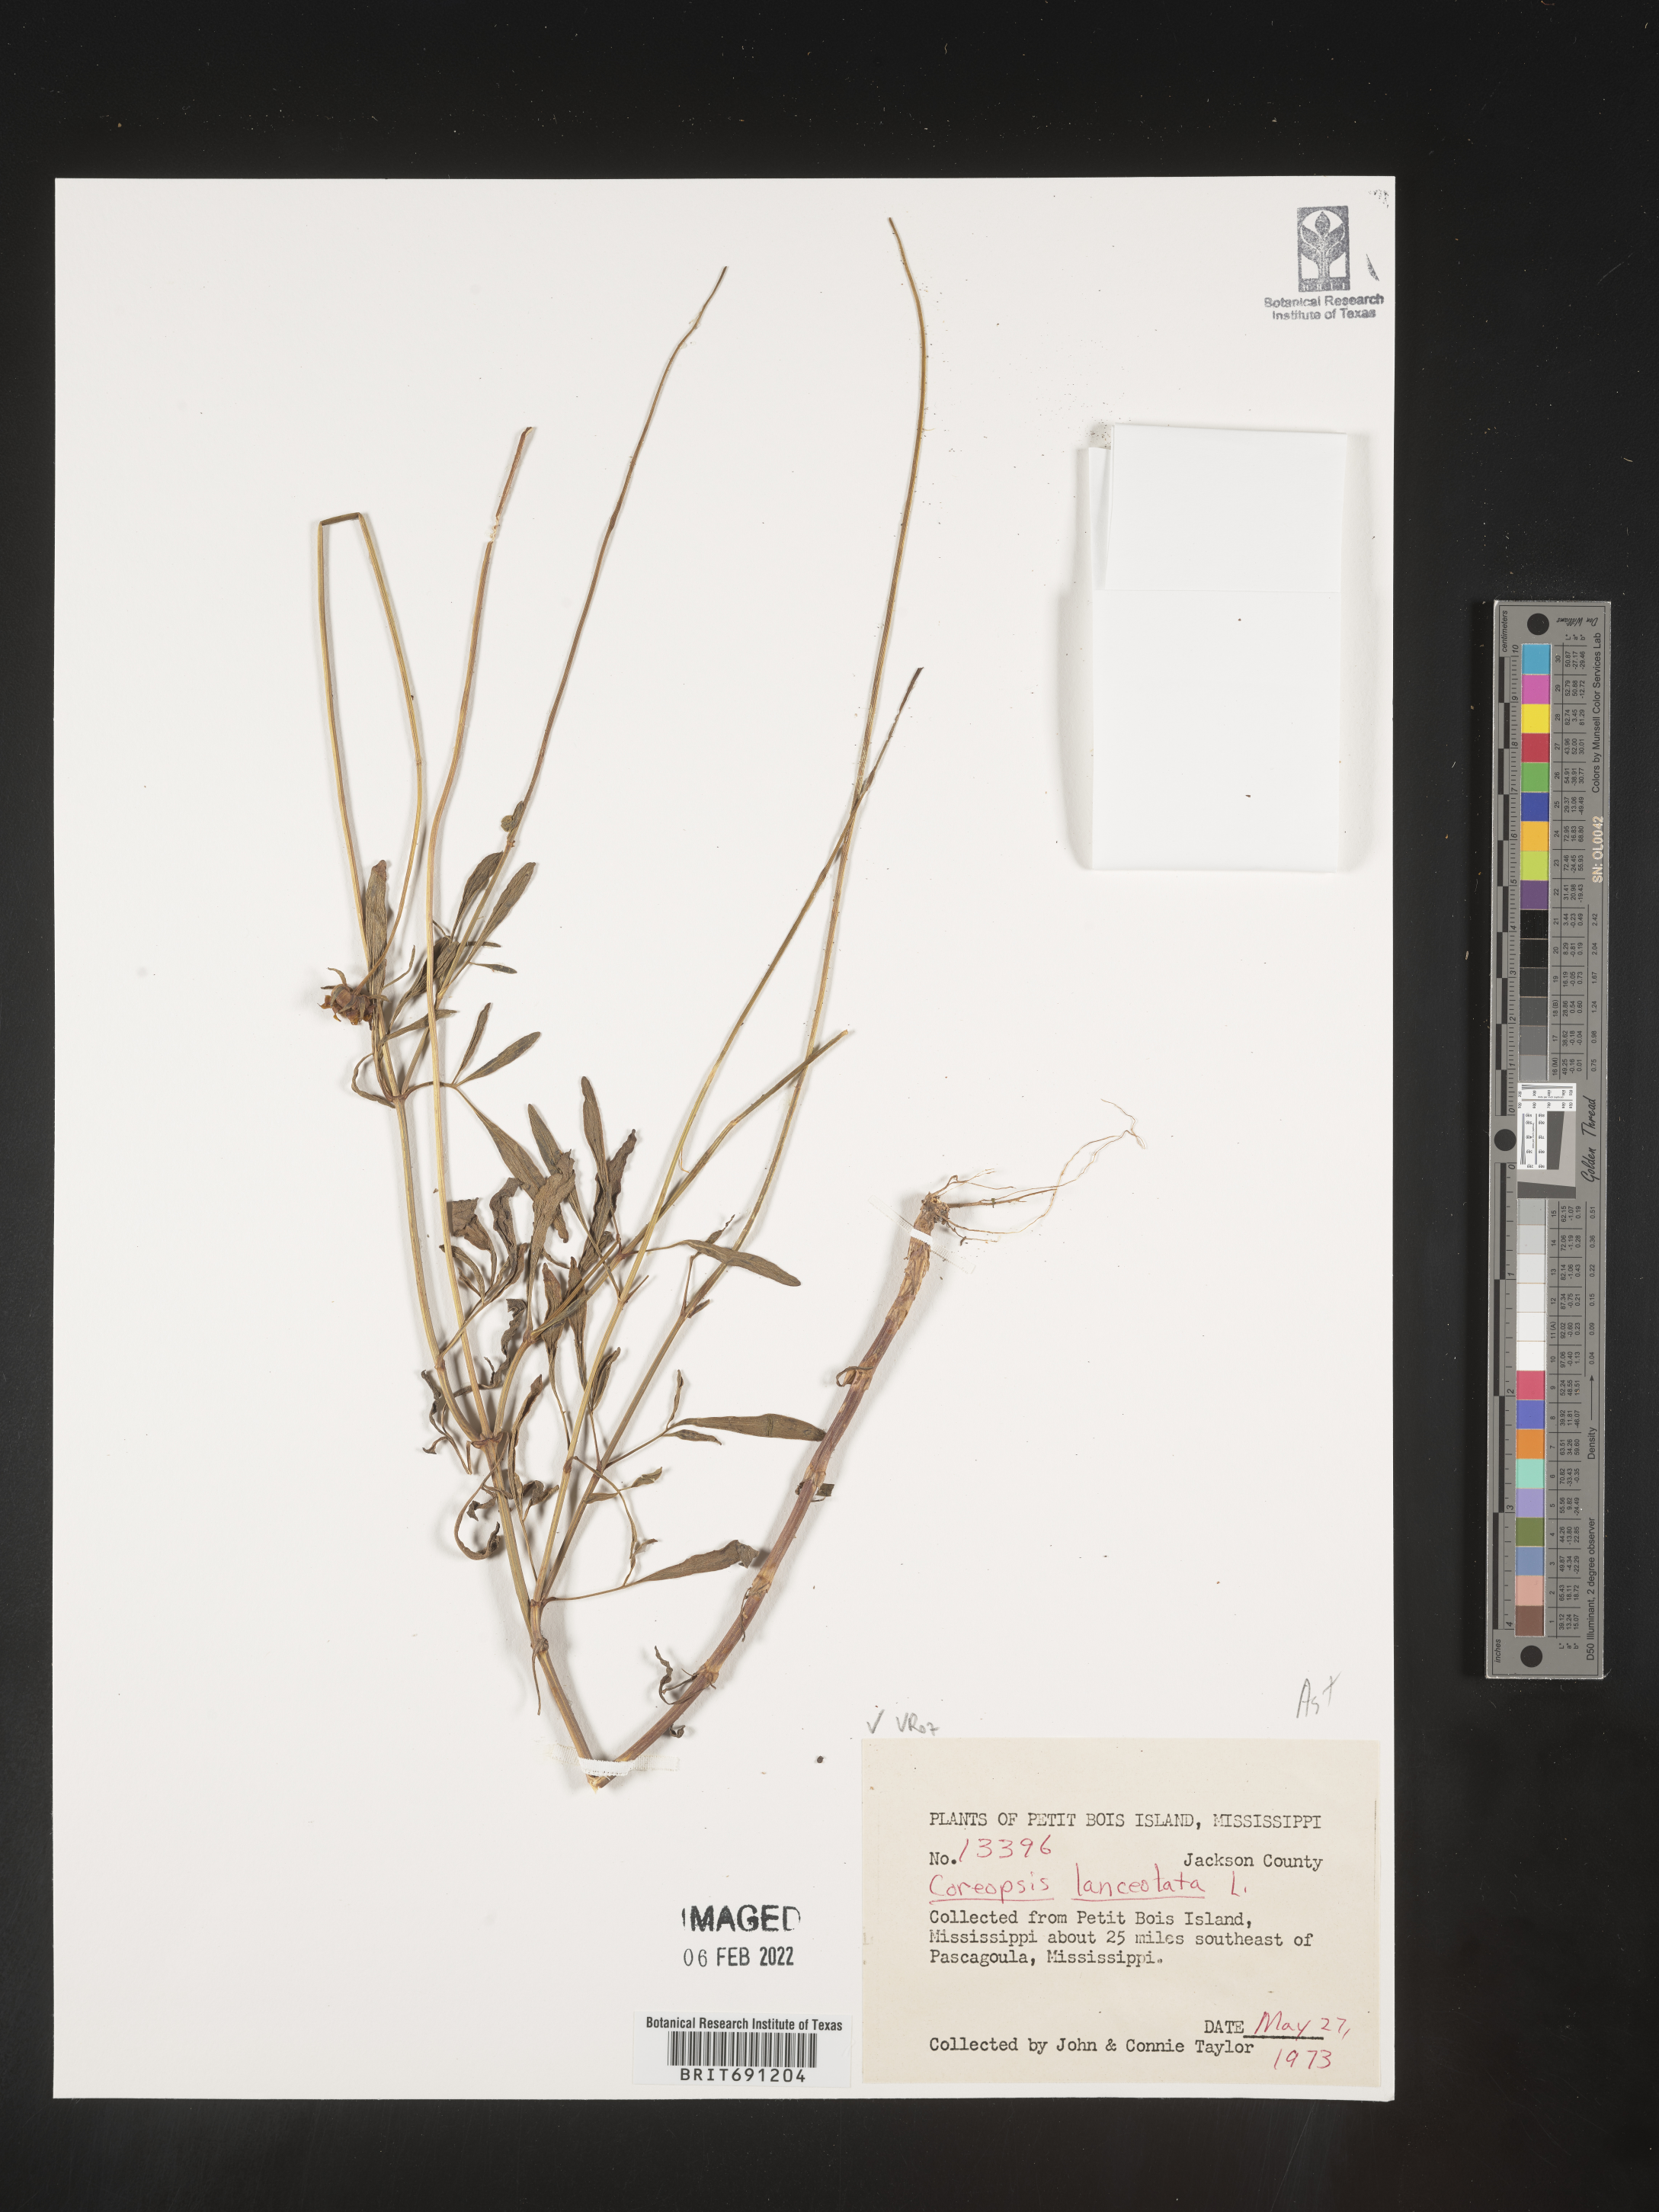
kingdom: Plantae
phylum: Tracheophyta
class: Magnoliopsida
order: Asterales
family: Asteraceae
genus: Coreopsis
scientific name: Coreopsis lanceolata
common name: Garden coreopsis
